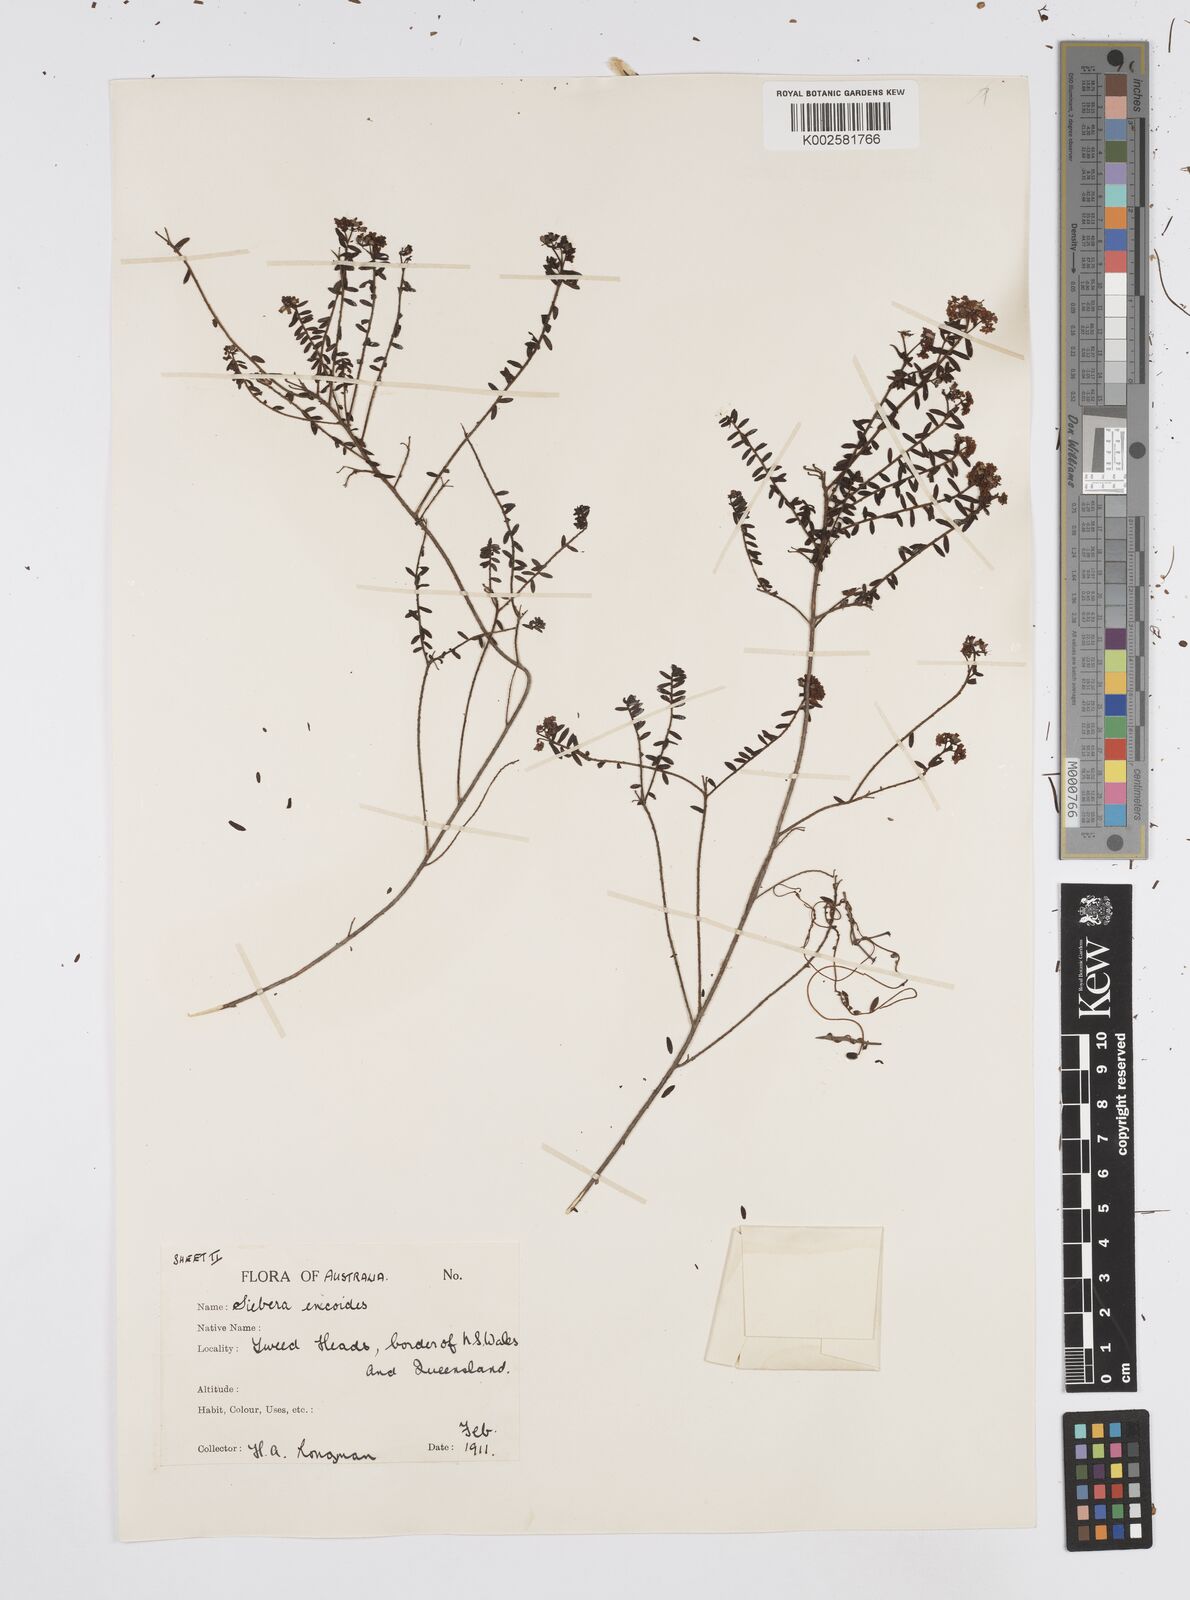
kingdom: Plantae
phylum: Tracheophyta
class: Magnoliopsida
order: Apiales
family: Apiaceae
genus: Platysace
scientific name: Platysace ericoides
